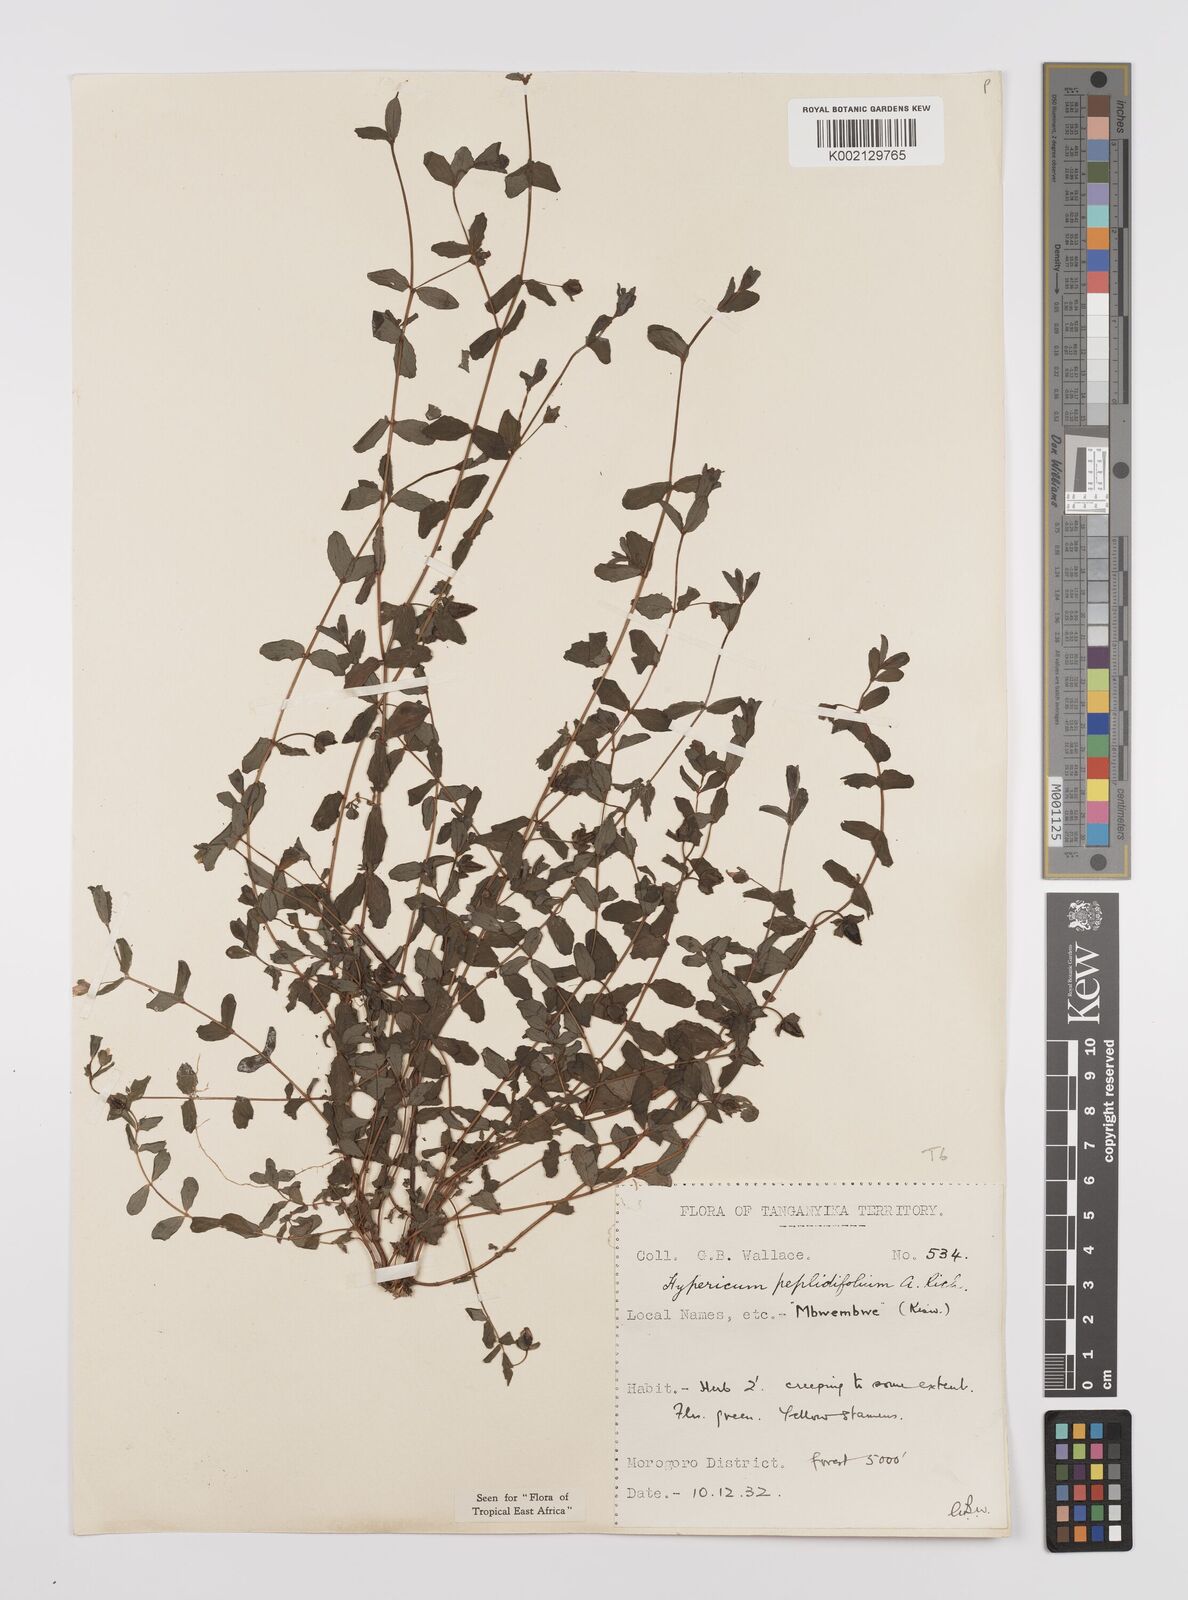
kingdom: Plantae
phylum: Tracheophyta
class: Magnoliopsida
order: Malpighiales
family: Hypericaceae
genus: Hypericum
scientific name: Hypericum peplidifolium
